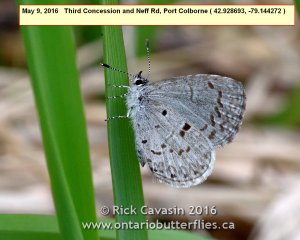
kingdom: Animalia
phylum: Arthropoda
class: Insecta
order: Lepidoptera
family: Lycaenidae
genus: Celastrina
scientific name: Celastrina
